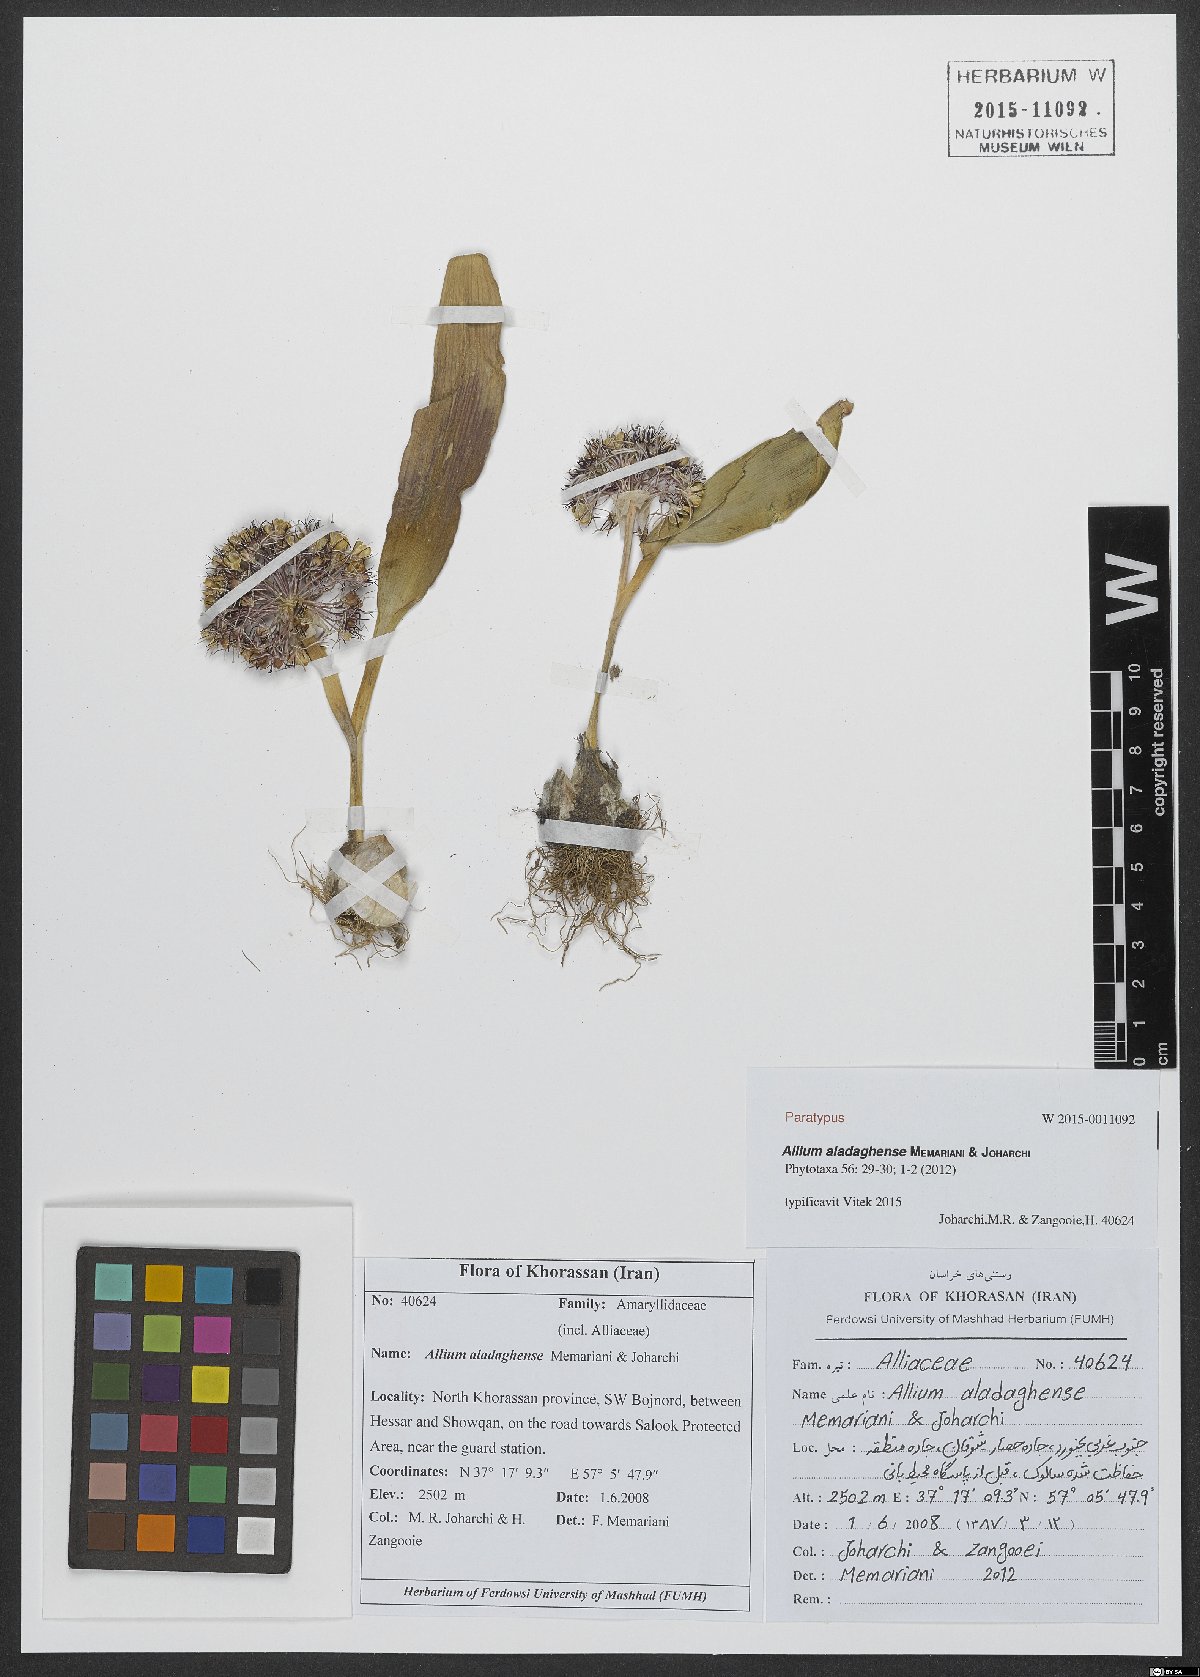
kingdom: Plantae
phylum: Tracheophyta
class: Liliopsida
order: Asparagales
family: Amaryllidaceae
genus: Allium
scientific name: Allium aladaghense
